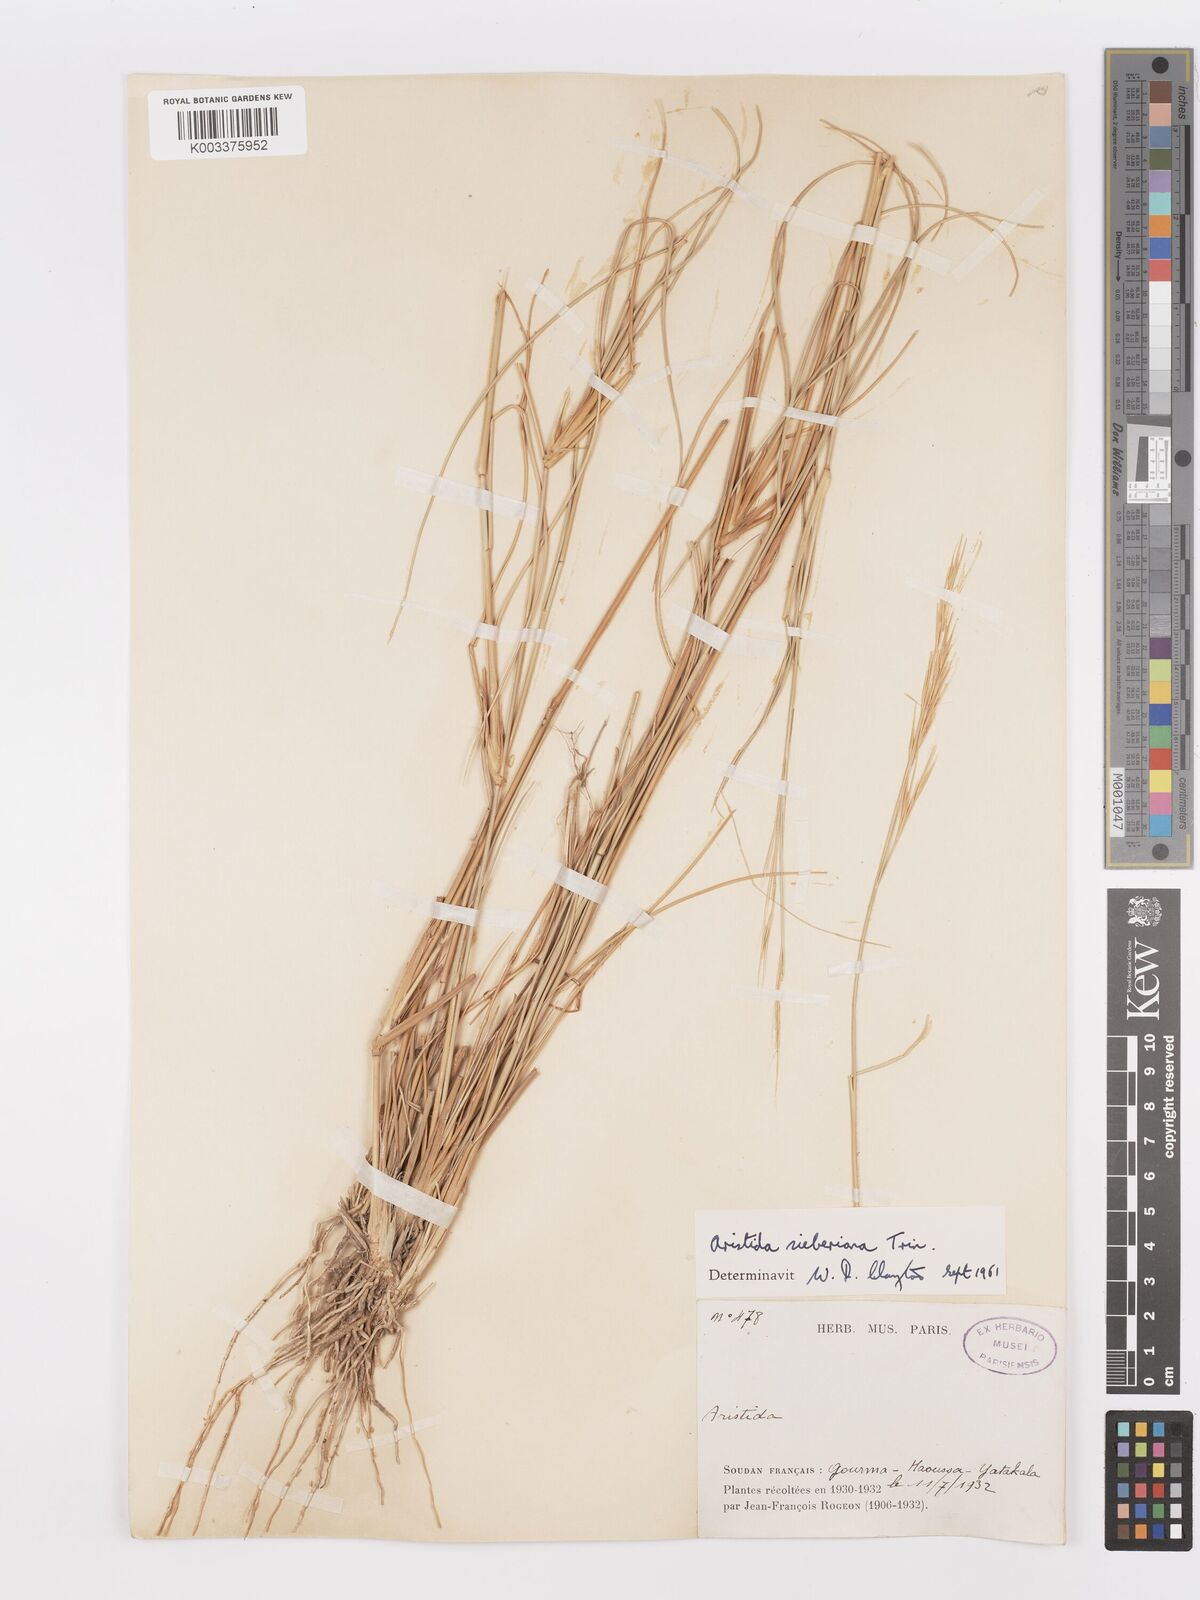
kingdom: Plantae
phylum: Tracheophyta
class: Liliopsida
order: Poales
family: Poaceae
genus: Aristida
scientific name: Aristida sieberiana
